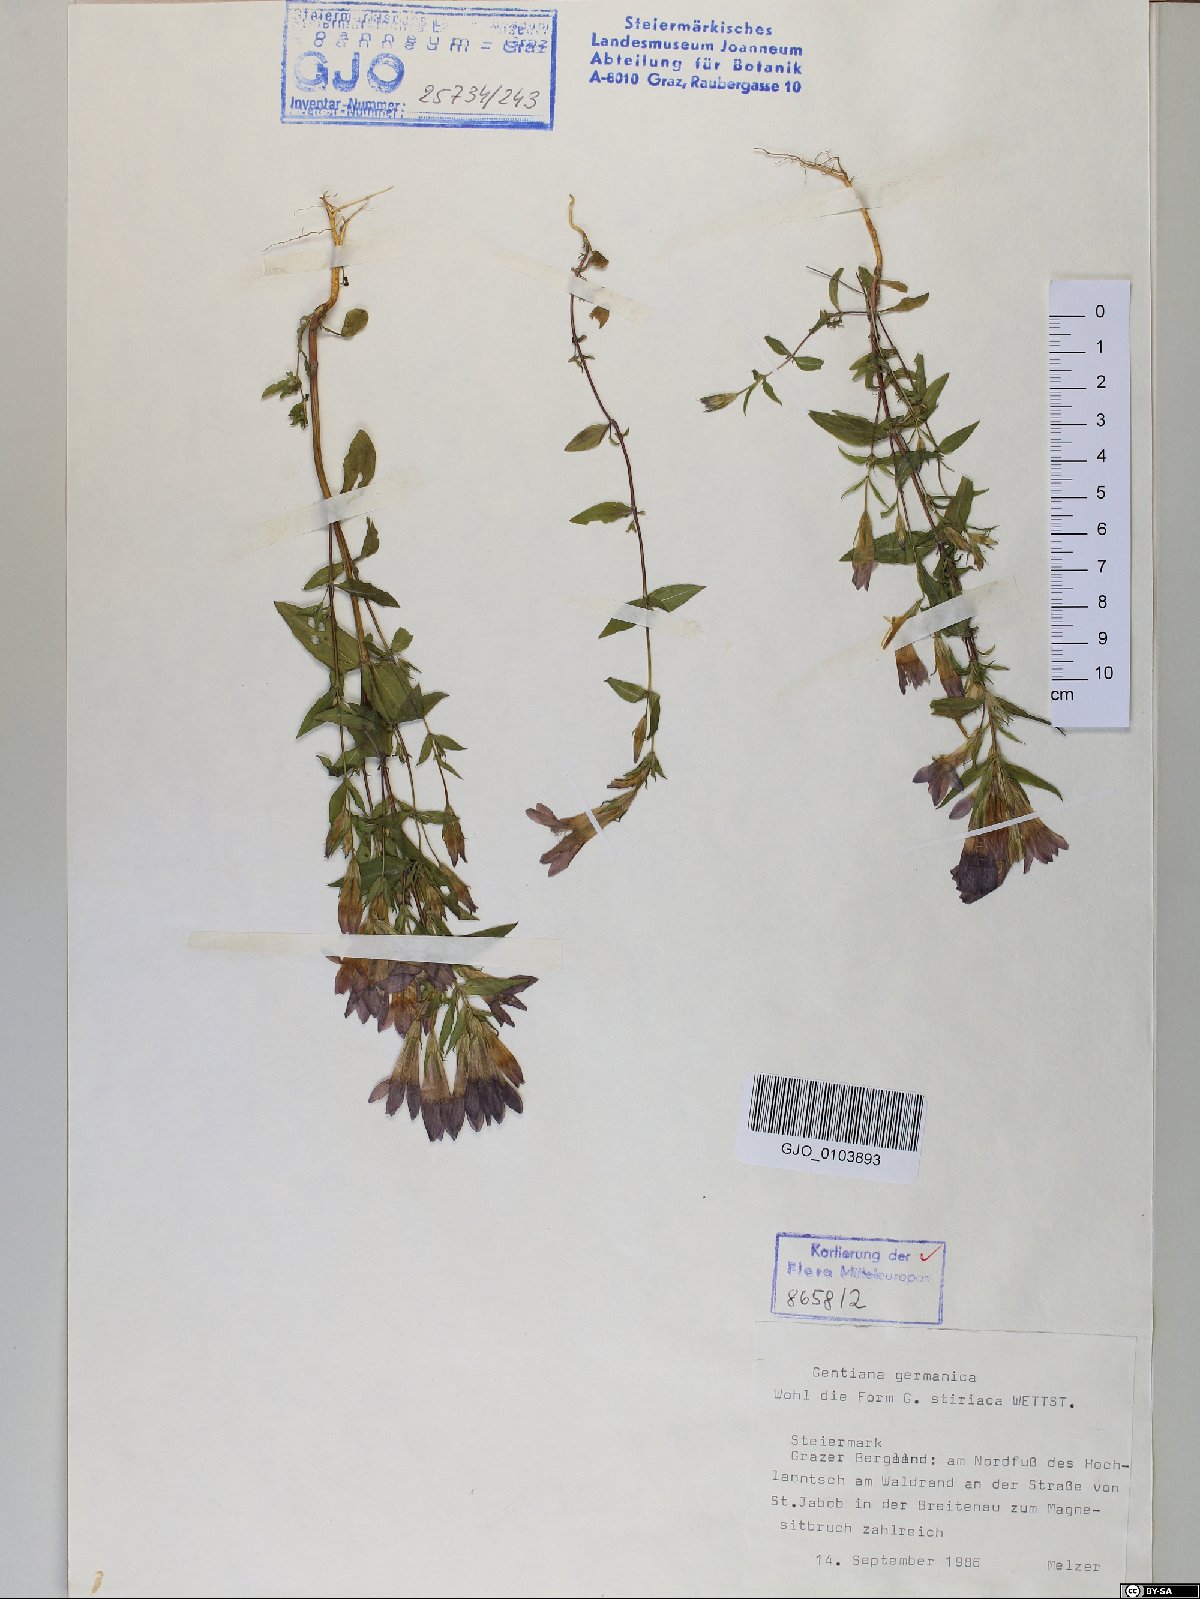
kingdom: Plantae
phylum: Tracheophyta
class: Magnoliopsida
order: Gentianales
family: Gentianaceae
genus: Gentianella
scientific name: Gentianella
